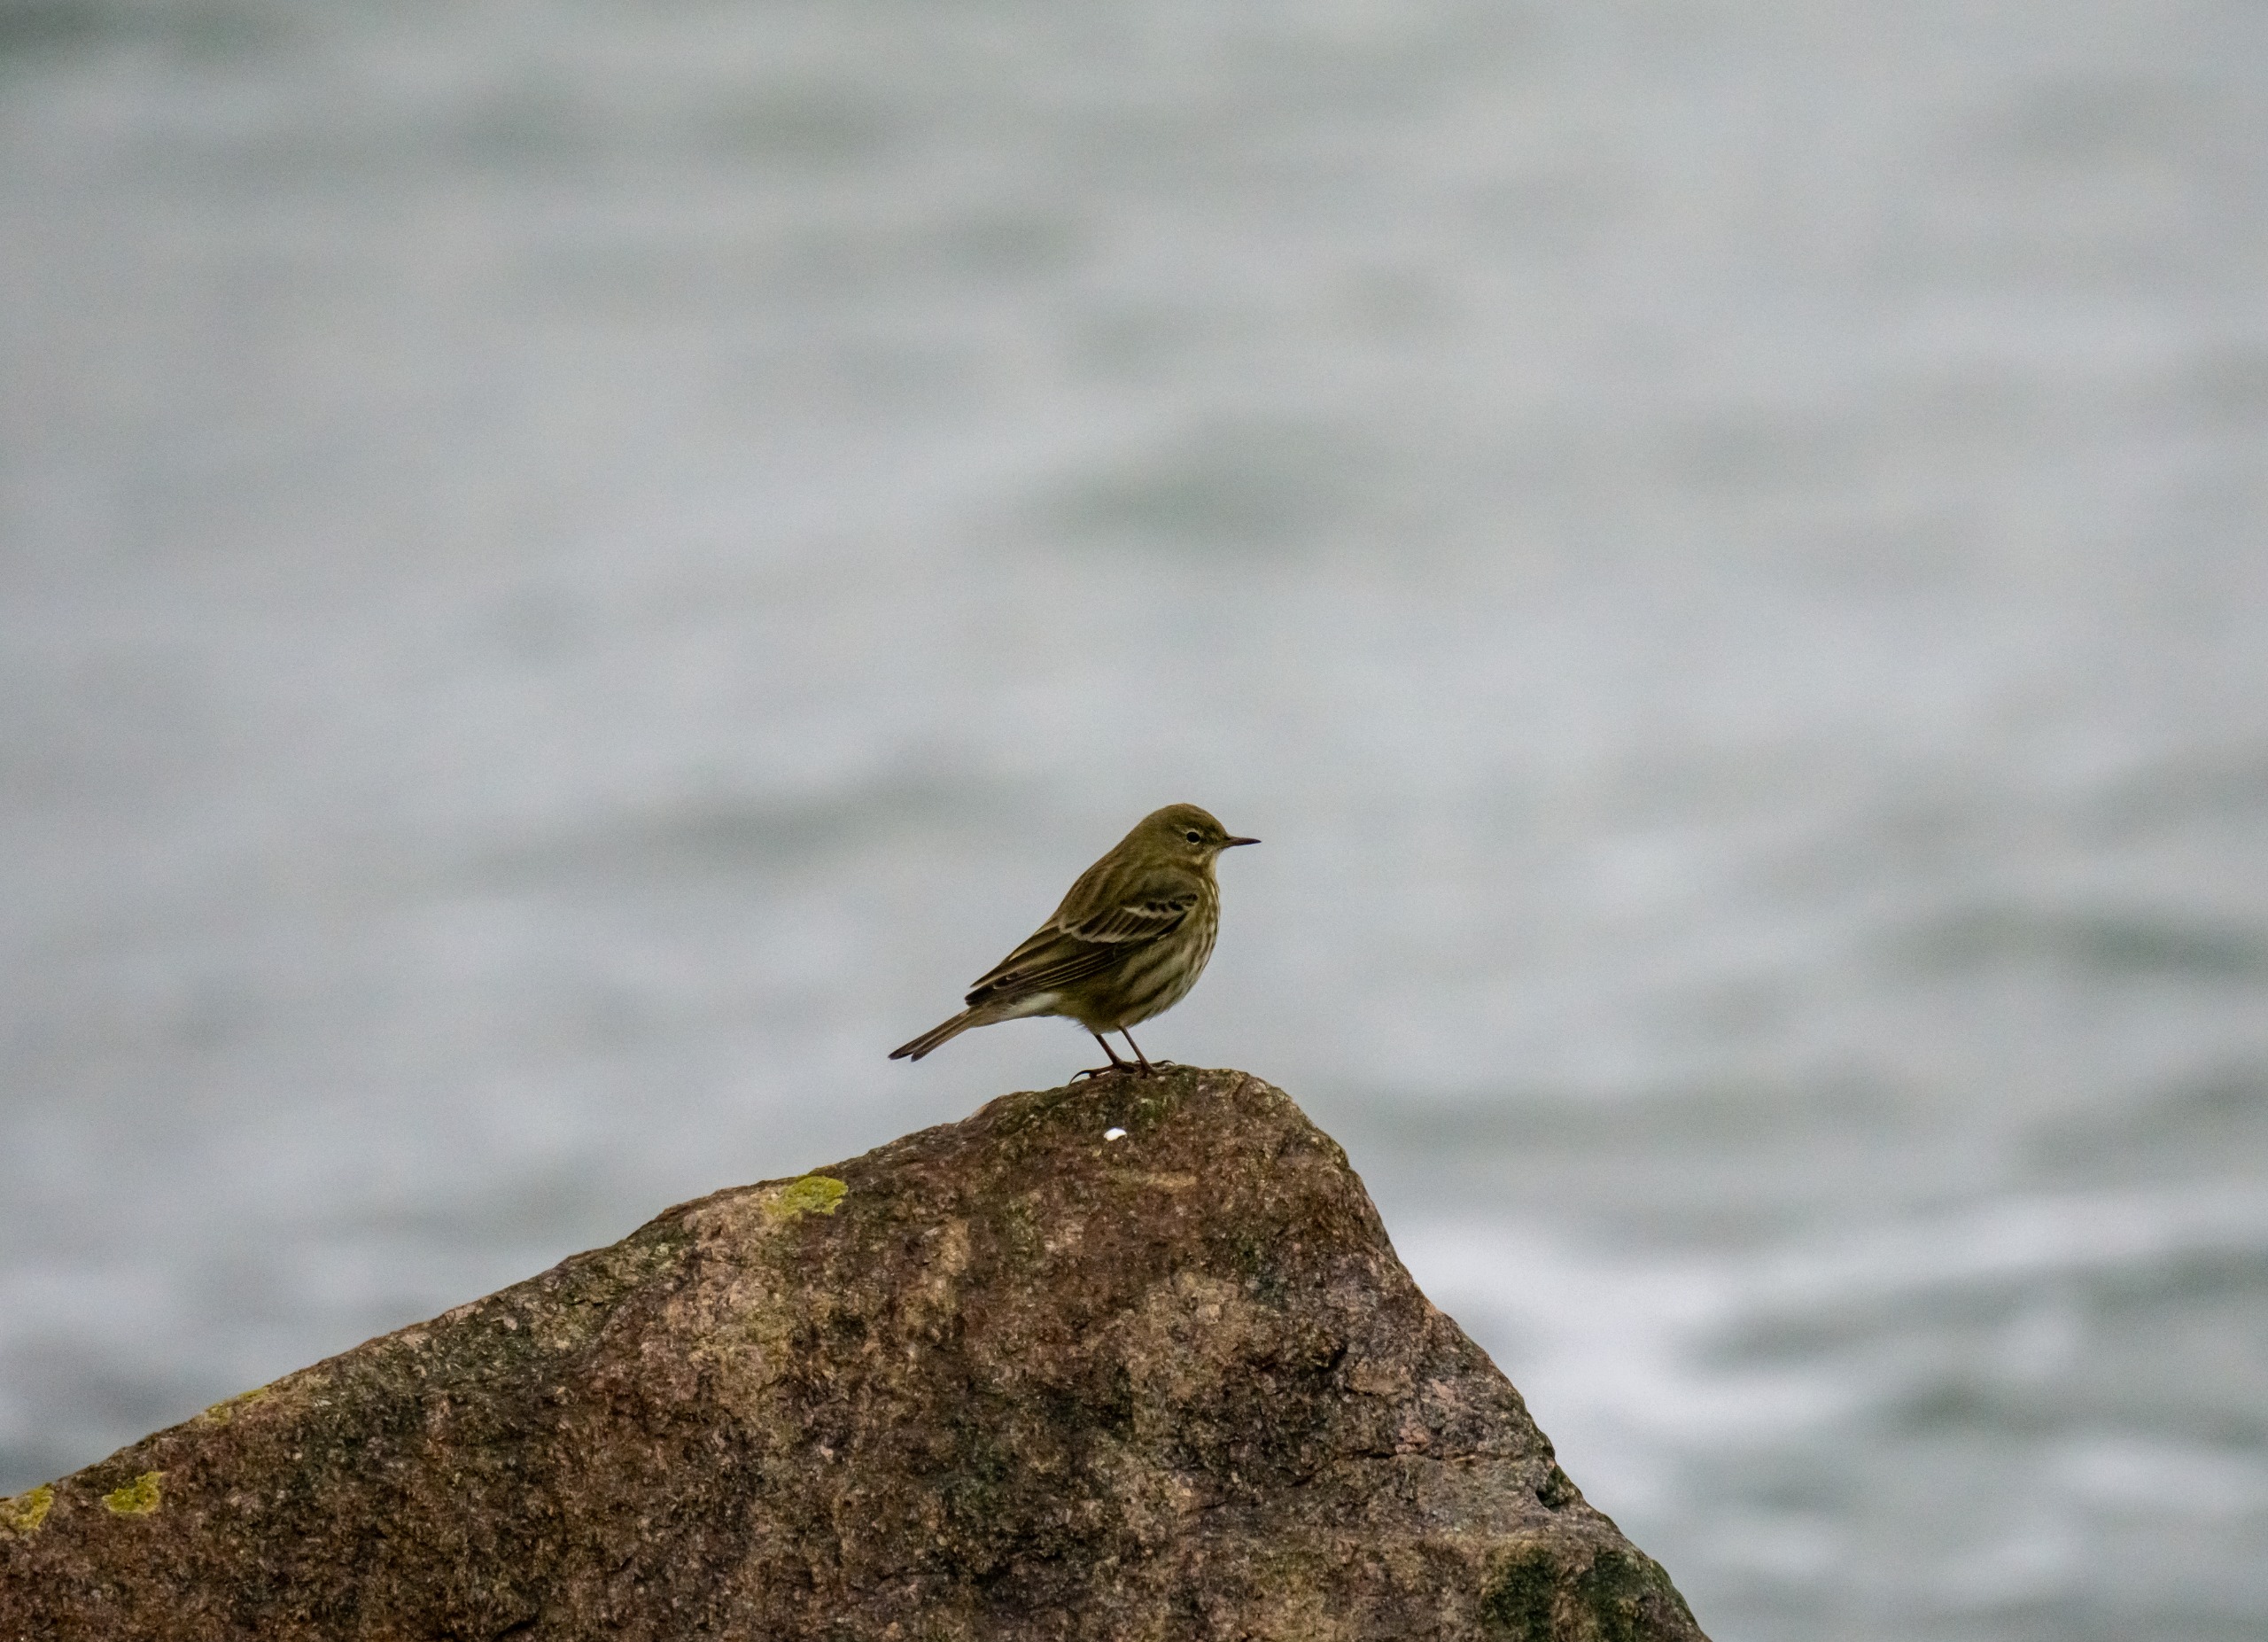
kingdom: Animalia
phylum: Chordata
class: Aves
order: Passeriformes
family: Motacillidae
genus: Anthus
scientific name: Anthus petrosus
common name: Skærpiber
